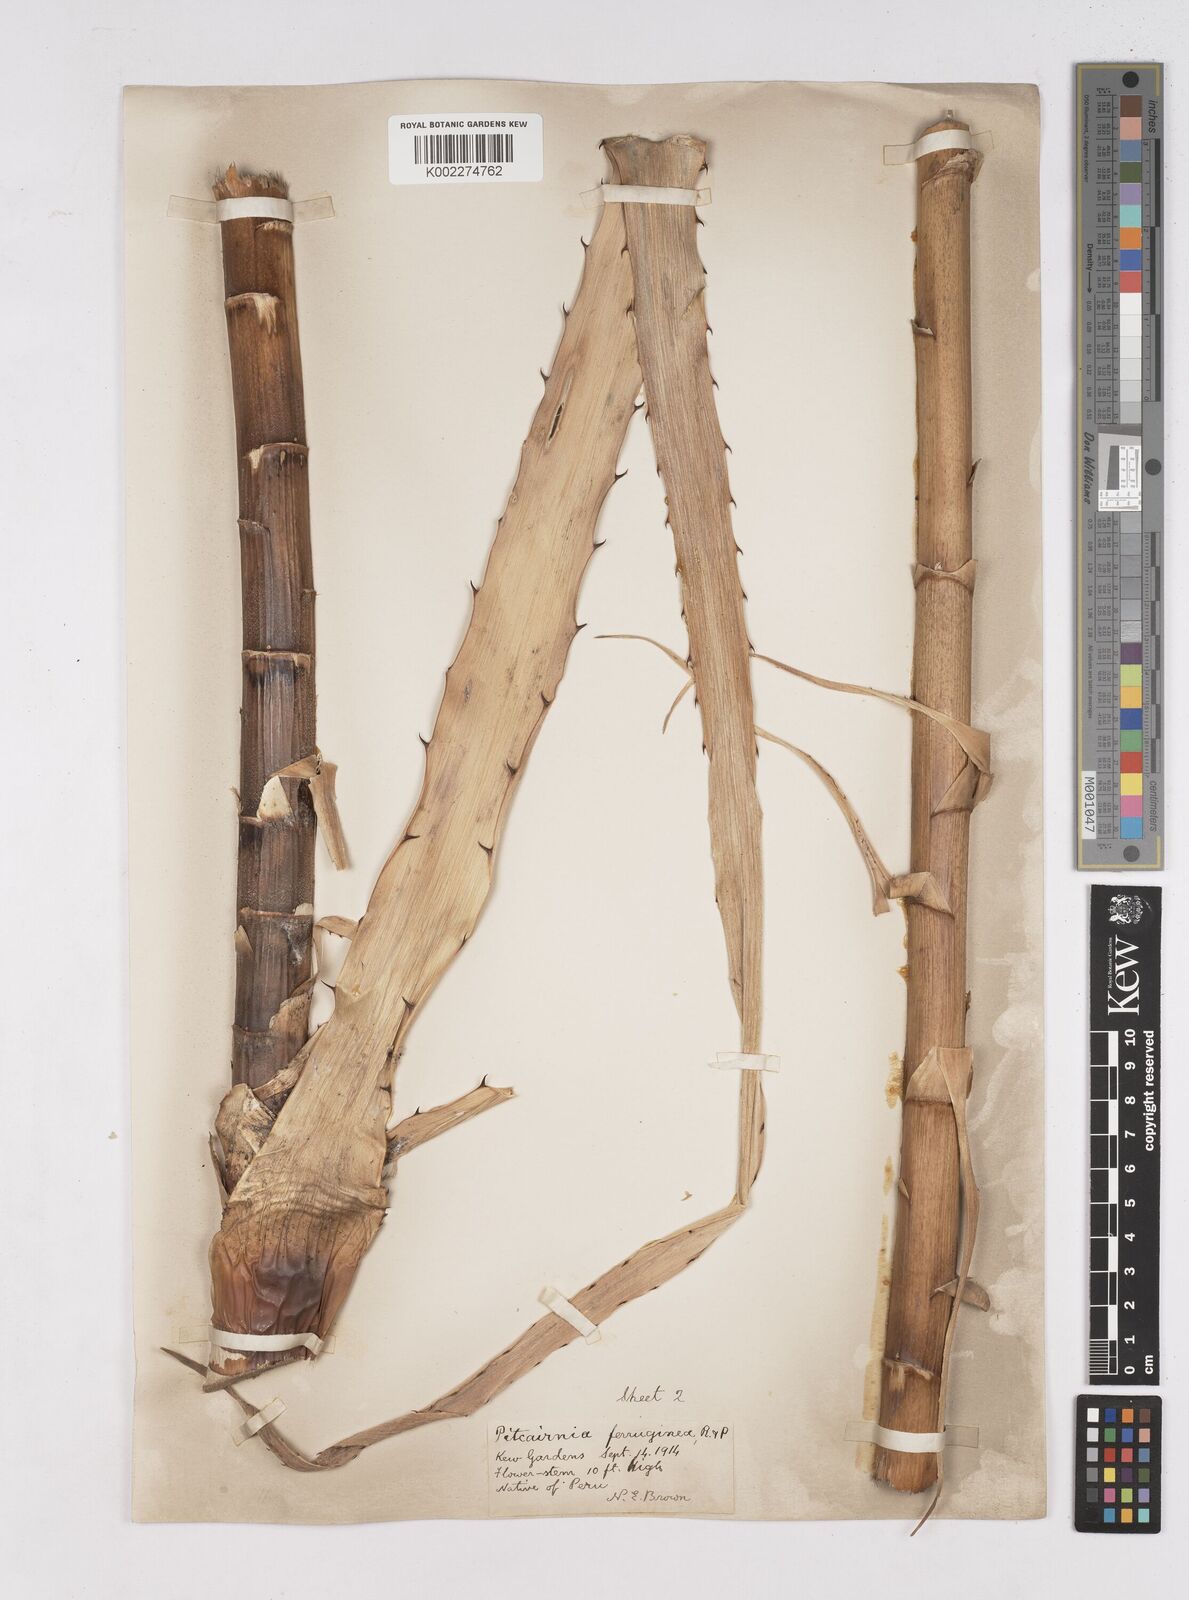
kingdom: Plantae
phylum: Tracheophyta
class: Liliopsida
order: Poales
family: Bromeliaceae
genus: Puya
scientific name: Puya ferruginea
